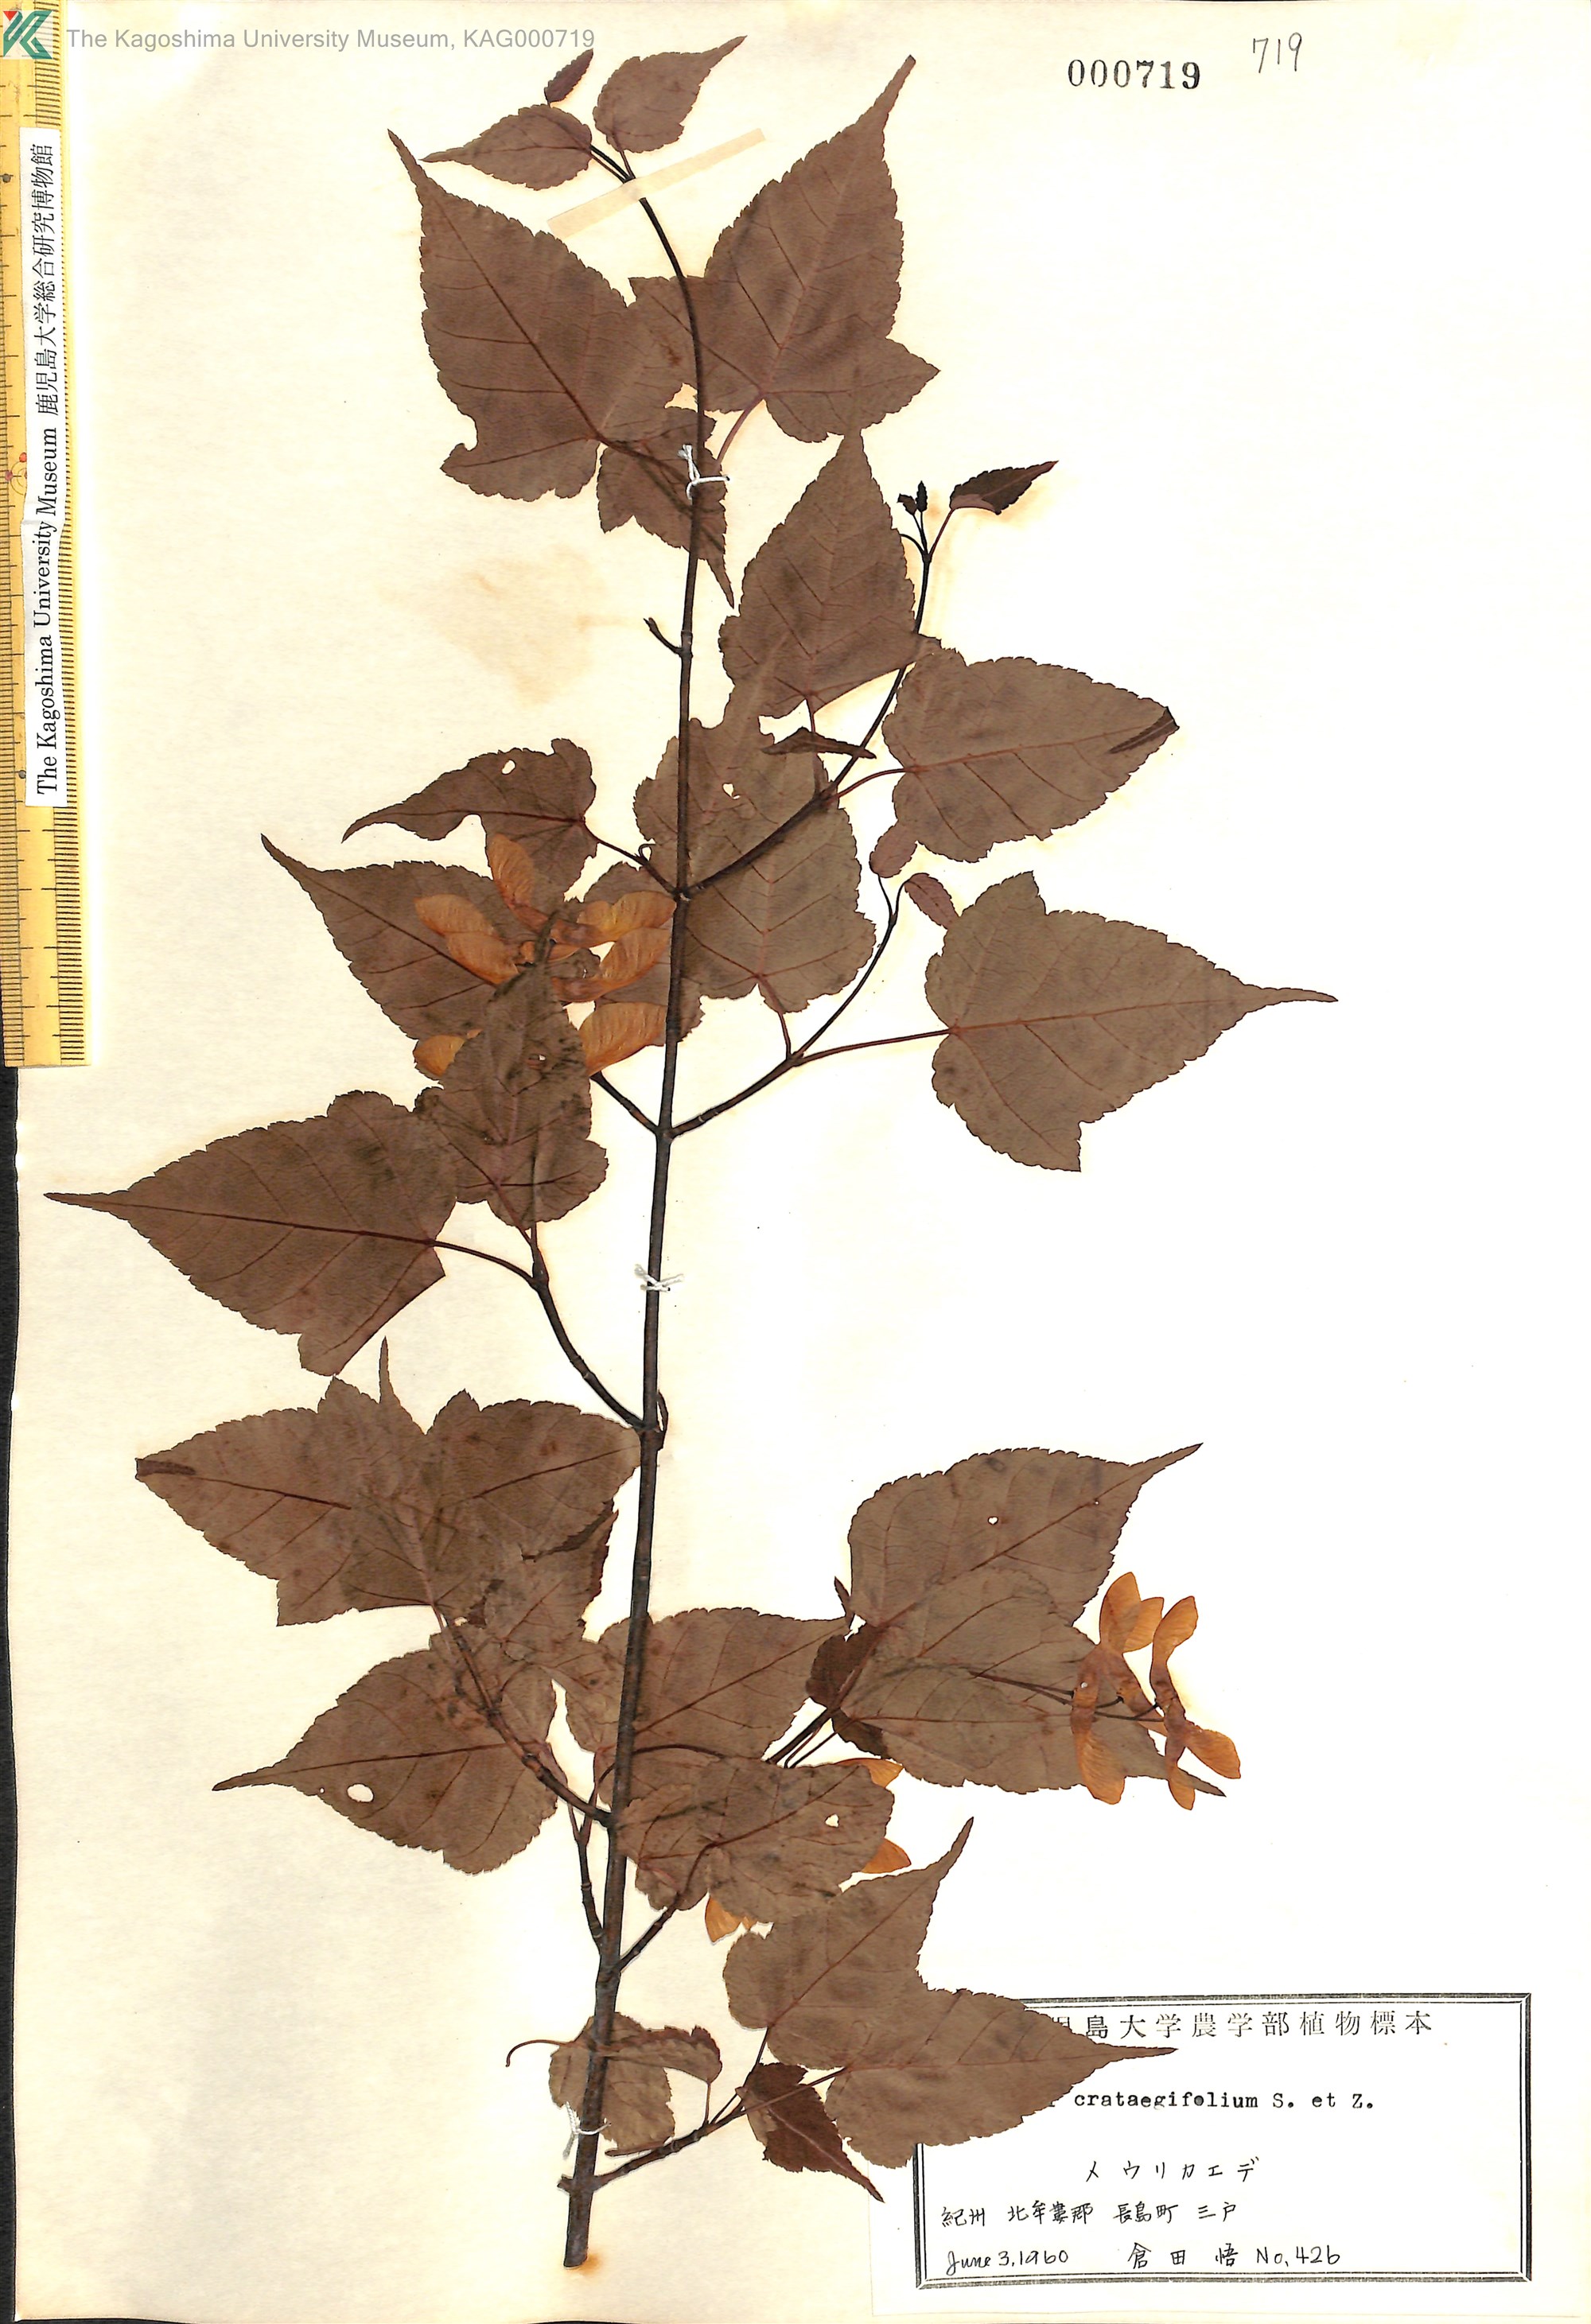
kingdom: Plantae
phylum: Tracheophyta
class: Magnoliopsida
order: Sapindales
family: Sapindaceae
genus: Acer
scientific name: Acer crataegifolium
